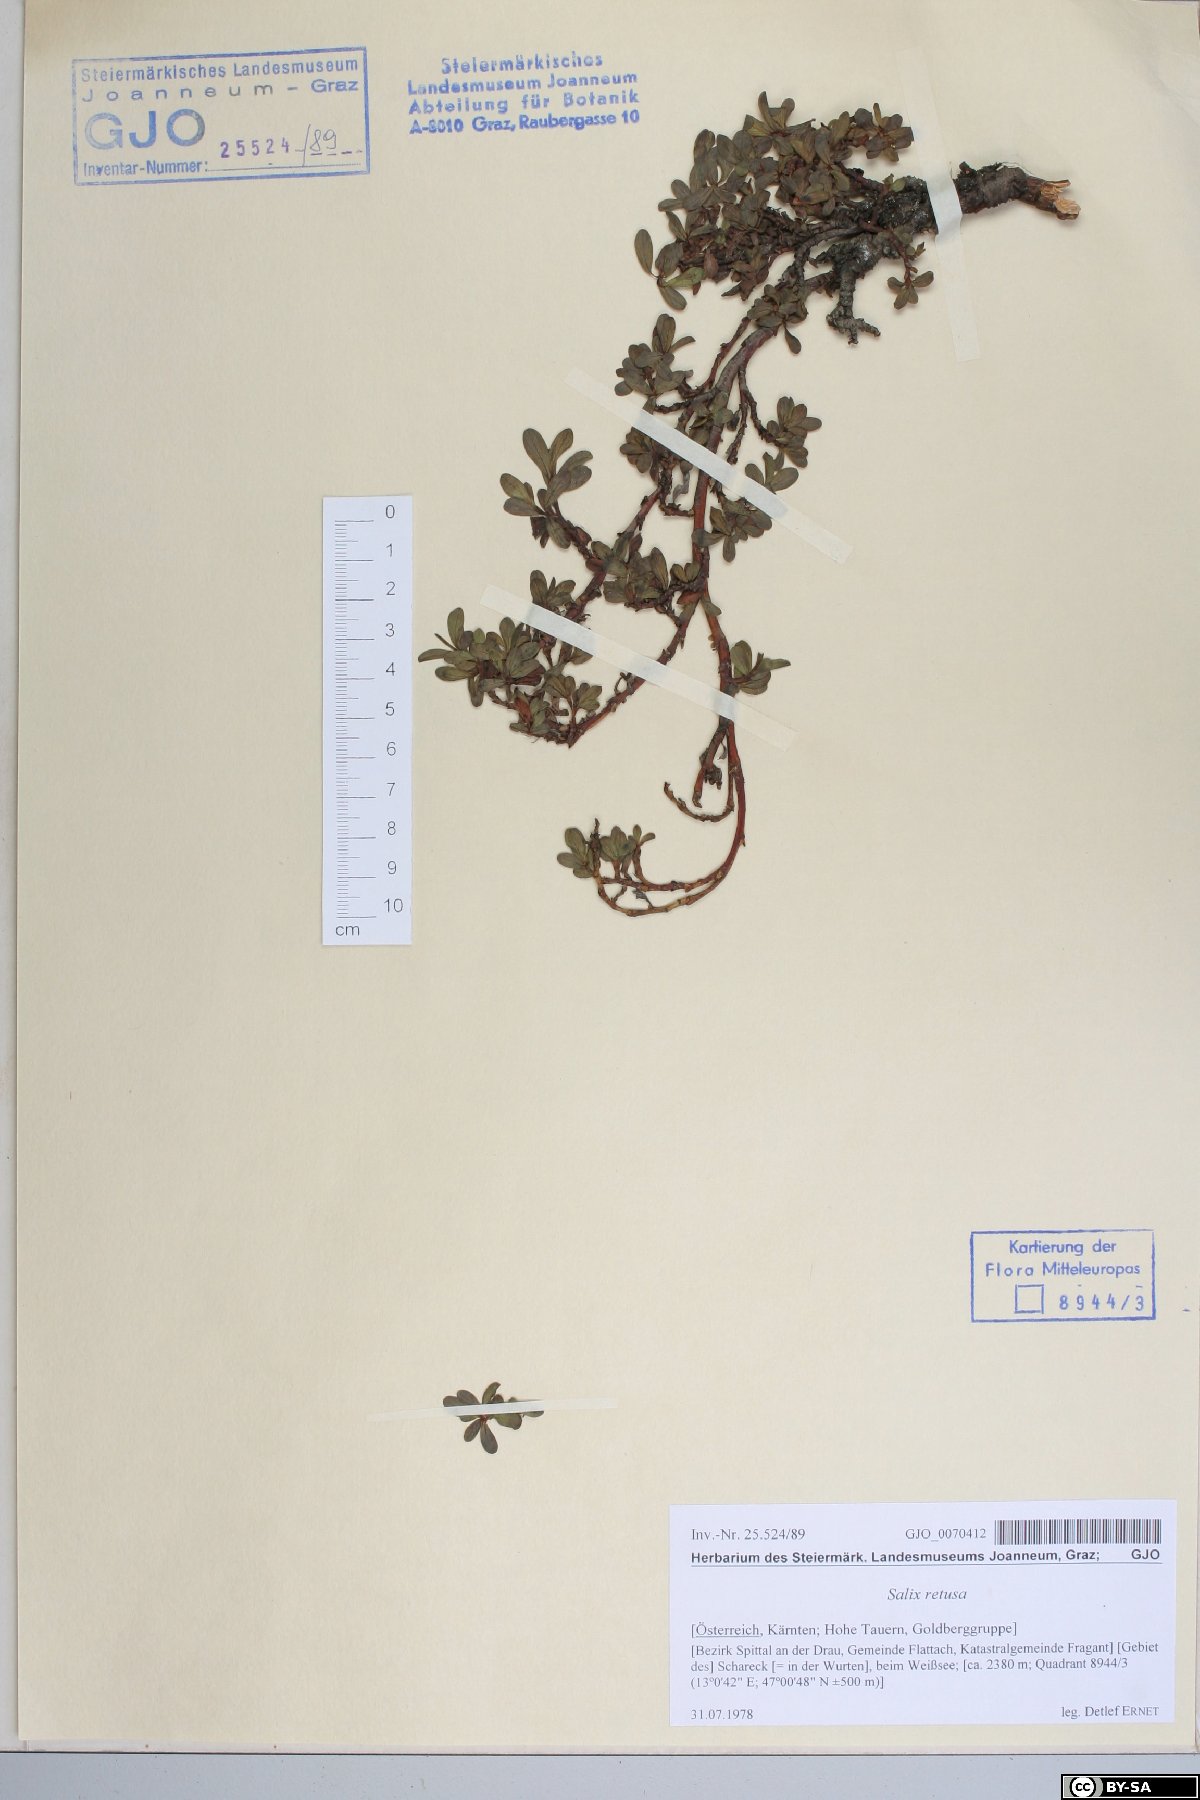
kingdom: Plantae
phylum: Tracheophyta
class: Magnoliopsida
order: Malpighiales
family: Salicaceae
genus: Salix
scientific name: Salix retusa
